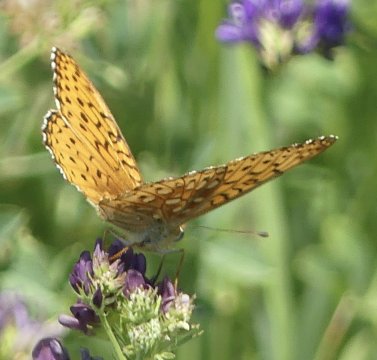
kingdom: Animalia
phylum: Arthropoda
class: Insecta
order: Lepidoptera
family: Nymphalidae
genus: Speyeria
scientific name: Speyeria
